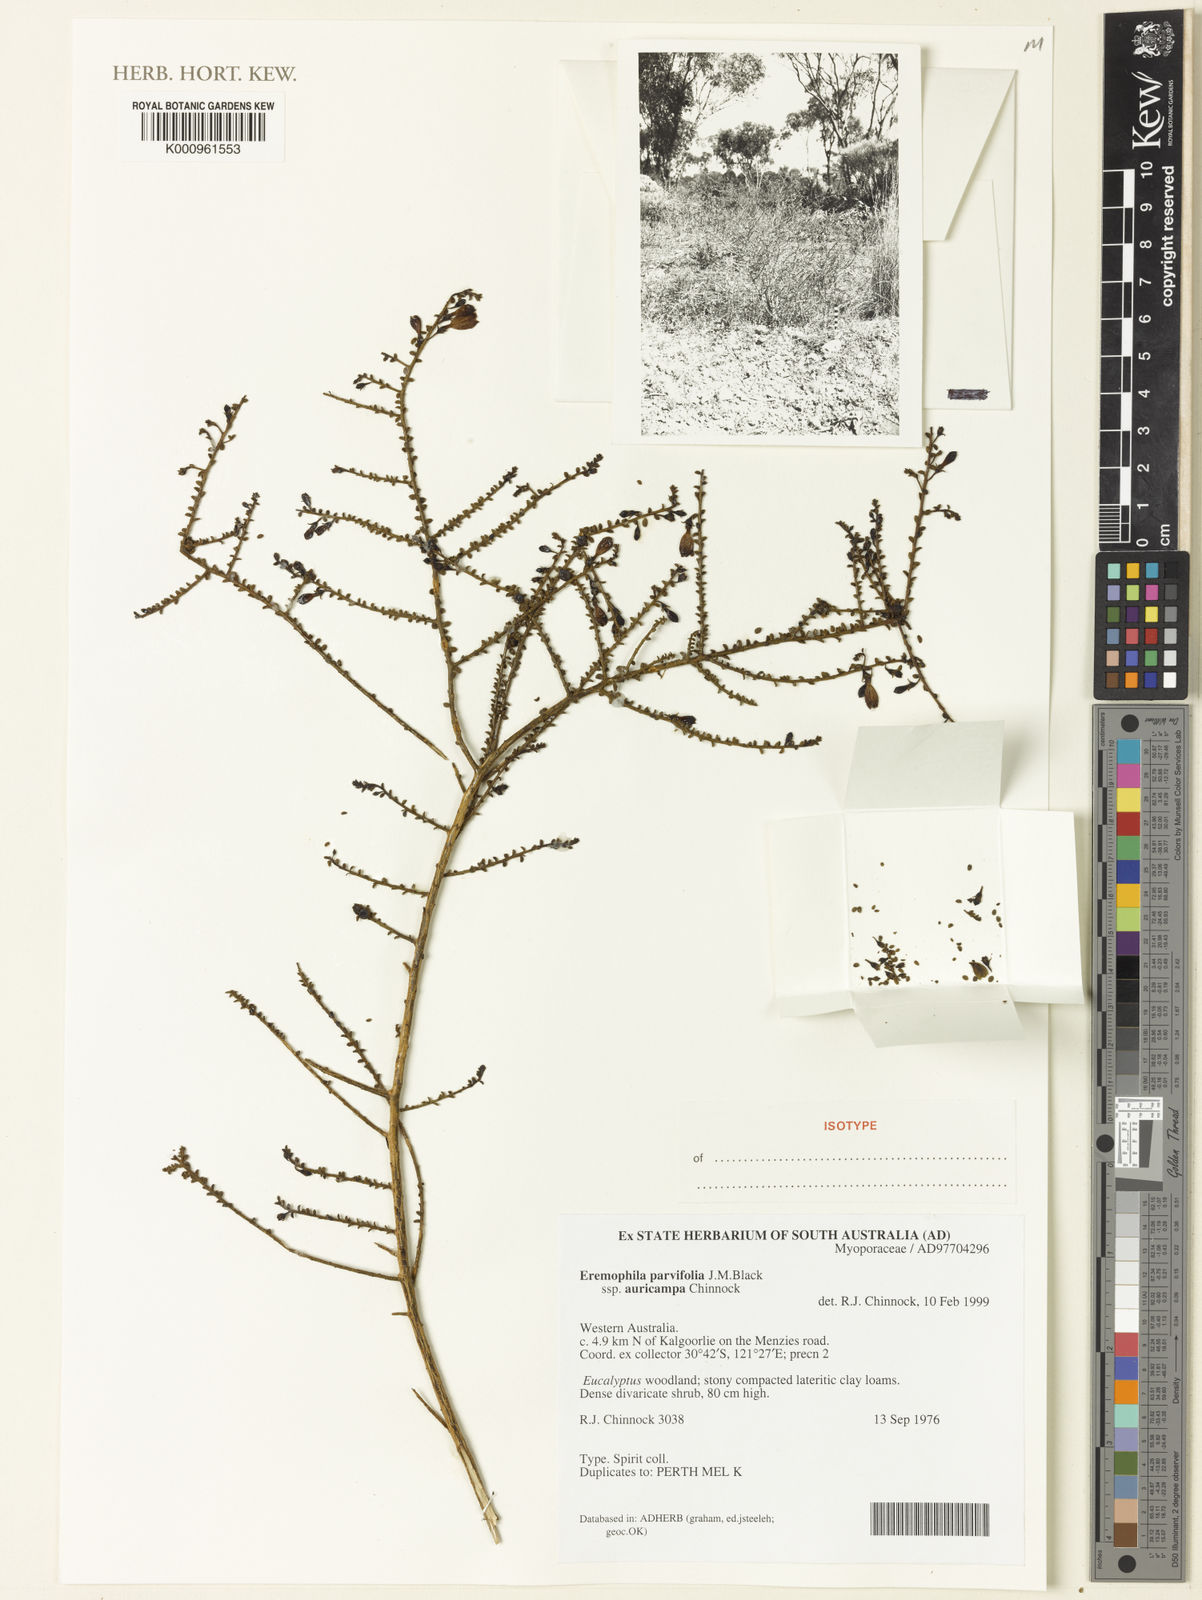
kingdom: Plantae
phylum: Tracheophyta
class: Magnoliopsida
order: Lamiales
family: Scrophulariaceae
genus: Eremophila
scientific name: Eremophila parvifolia
